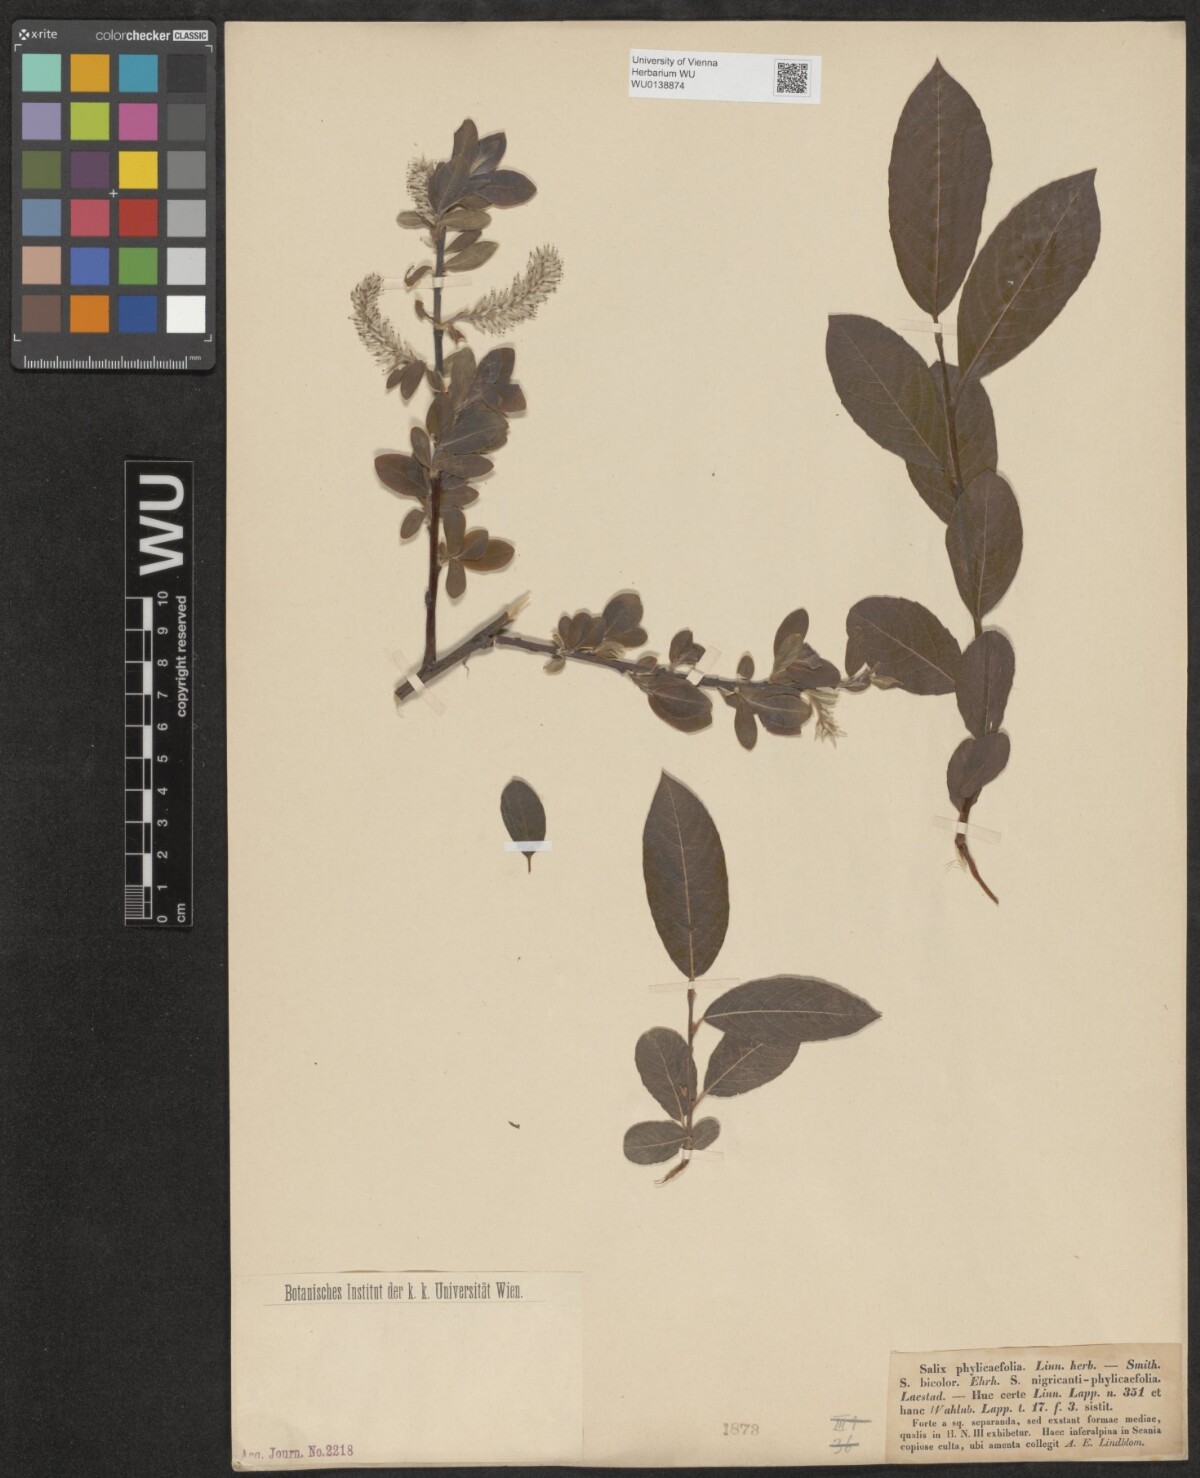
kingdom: Plantae
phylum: Tracheophyta
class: Magnoliopsida
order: Malpighiales
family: Salicaceae
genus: Salix
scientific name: Salix phylicifolia
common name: Tea-leaved willow
